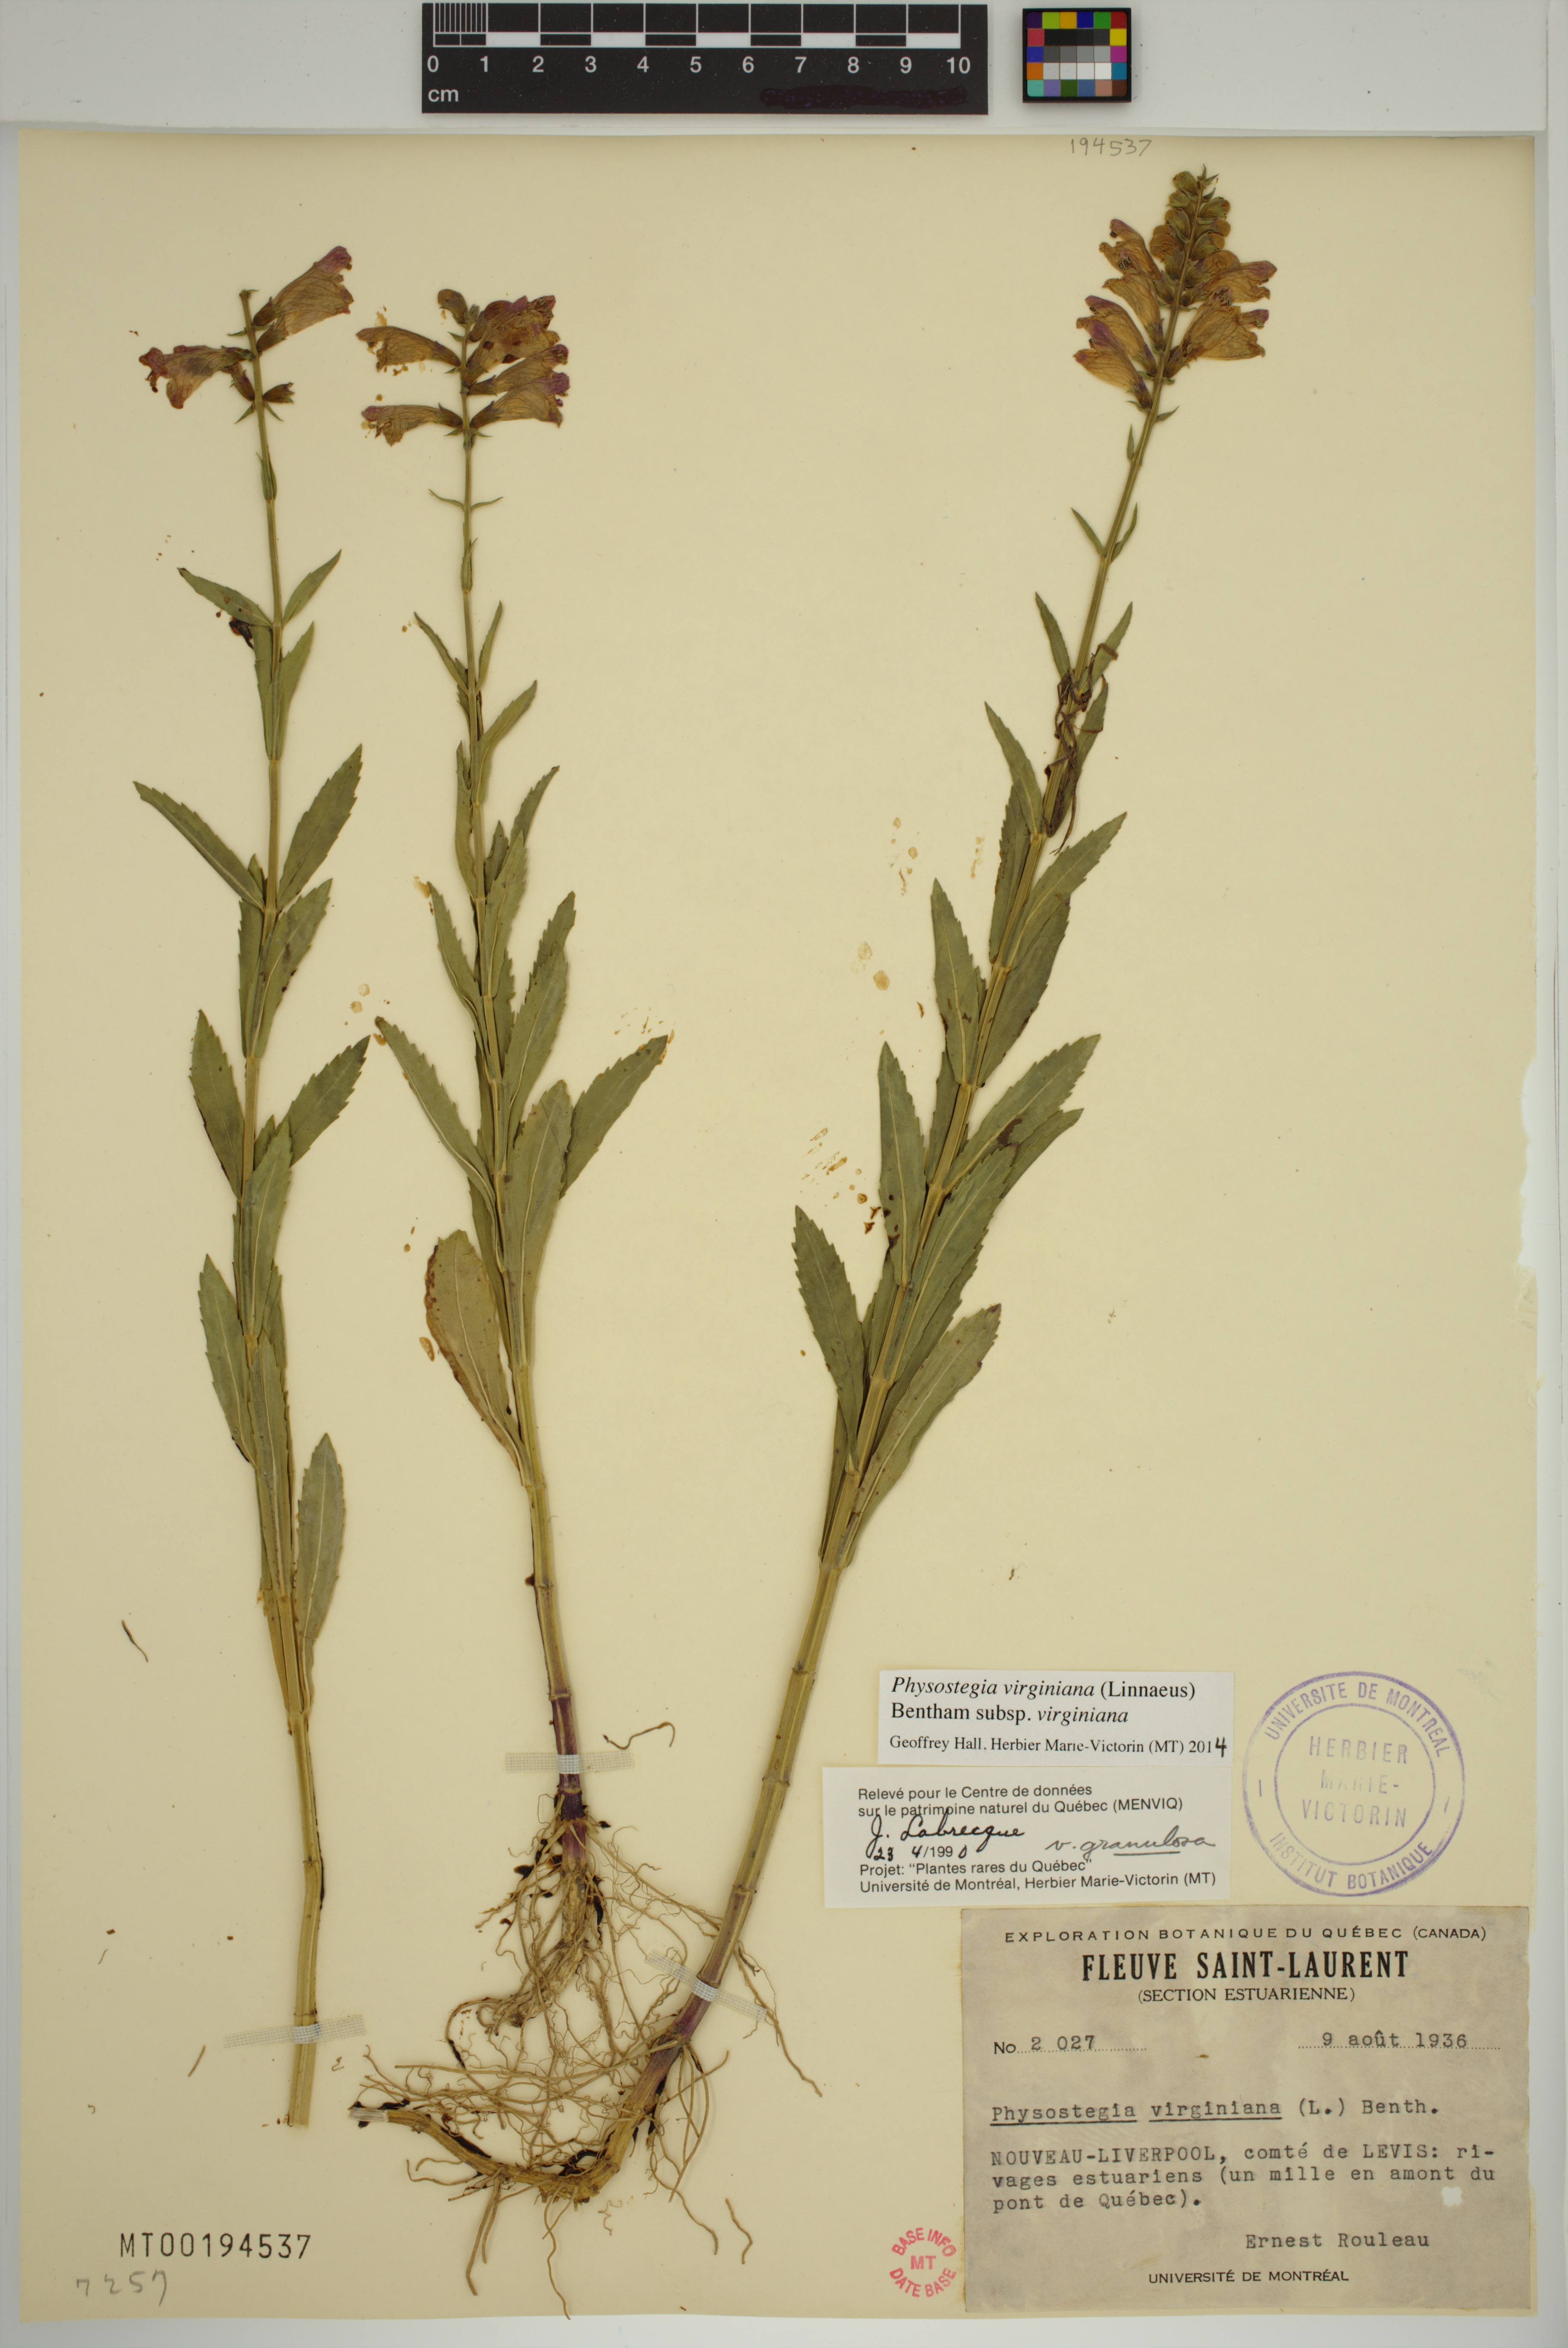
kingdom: Plantae
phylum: Tracheophyta
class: Magnoliopsida
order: Lamiales
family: Lamiaceae
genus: Physostegia
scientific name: Physostegia virginiana
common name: Obedient-plant
